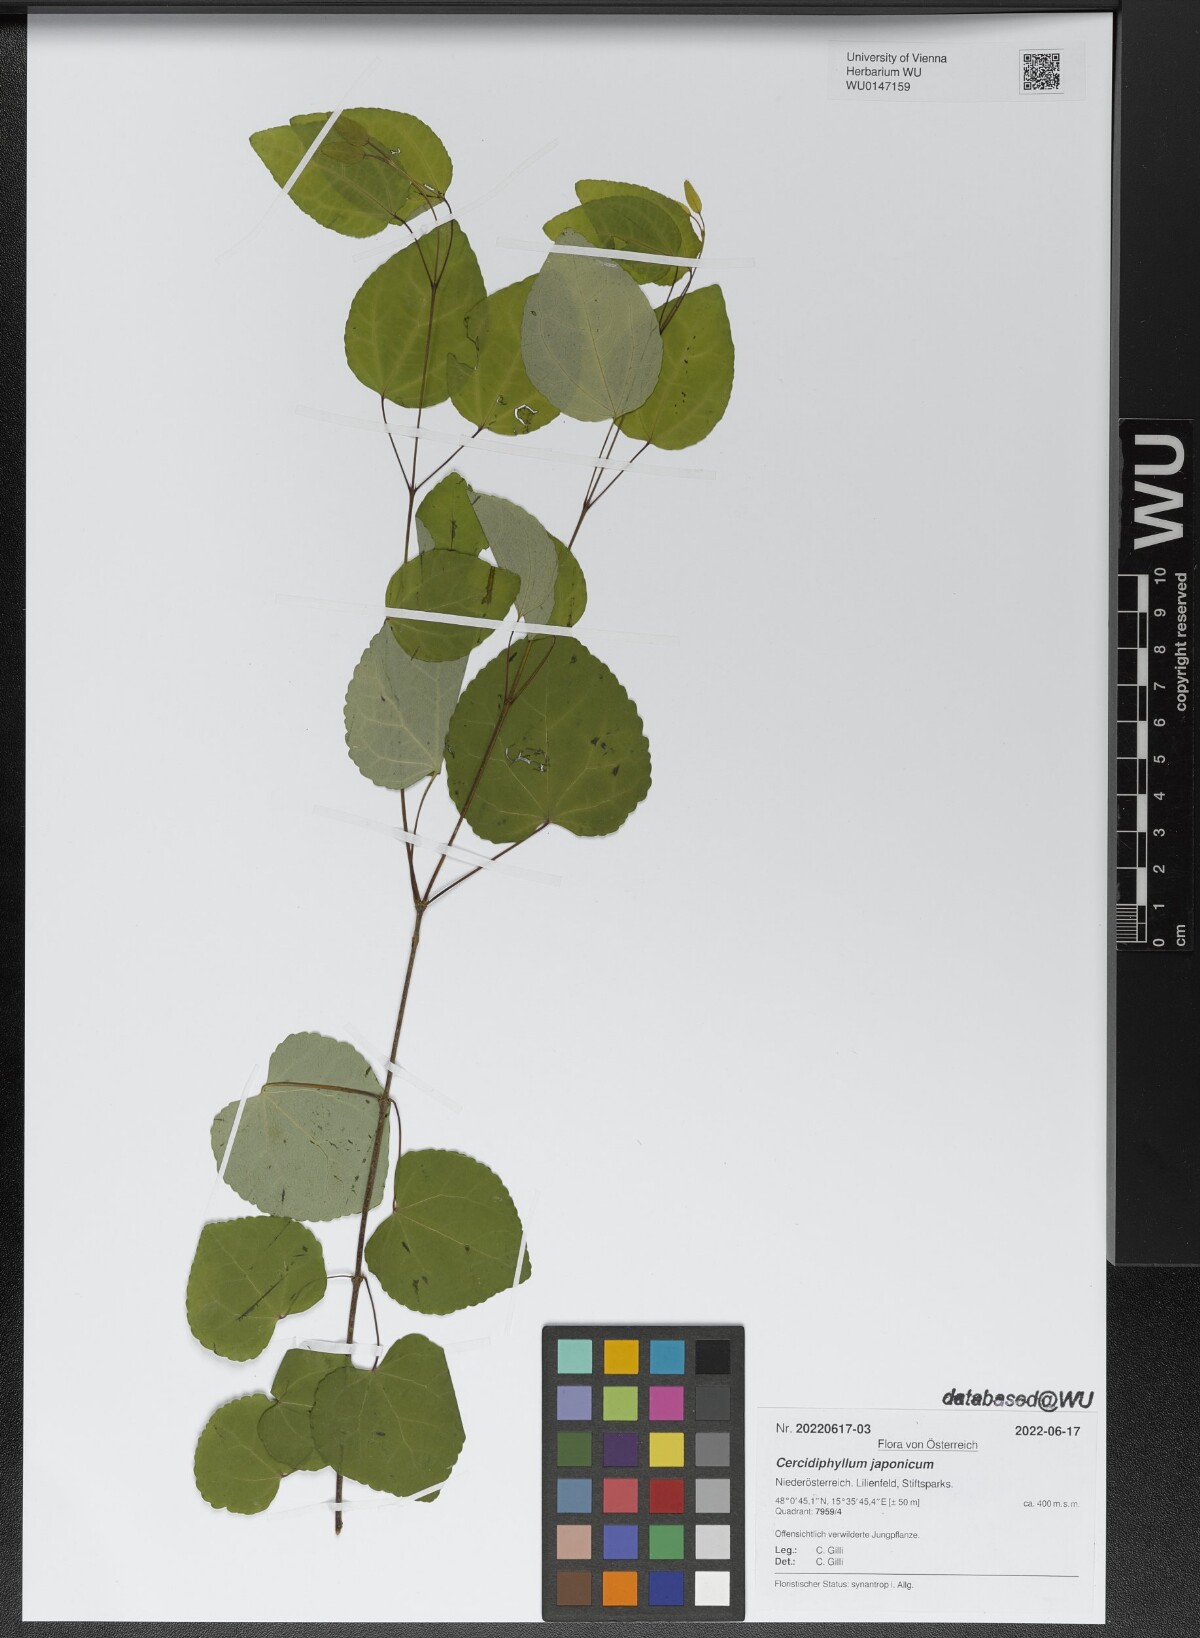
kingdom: Plantae
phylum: Tracheophyta
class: Magnoliopsida
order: Saxifragales
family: Cercidiphyllaceae
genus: Cercidiphyllum
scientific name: Cercidiphyllum japonicum
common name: Katsura tree
